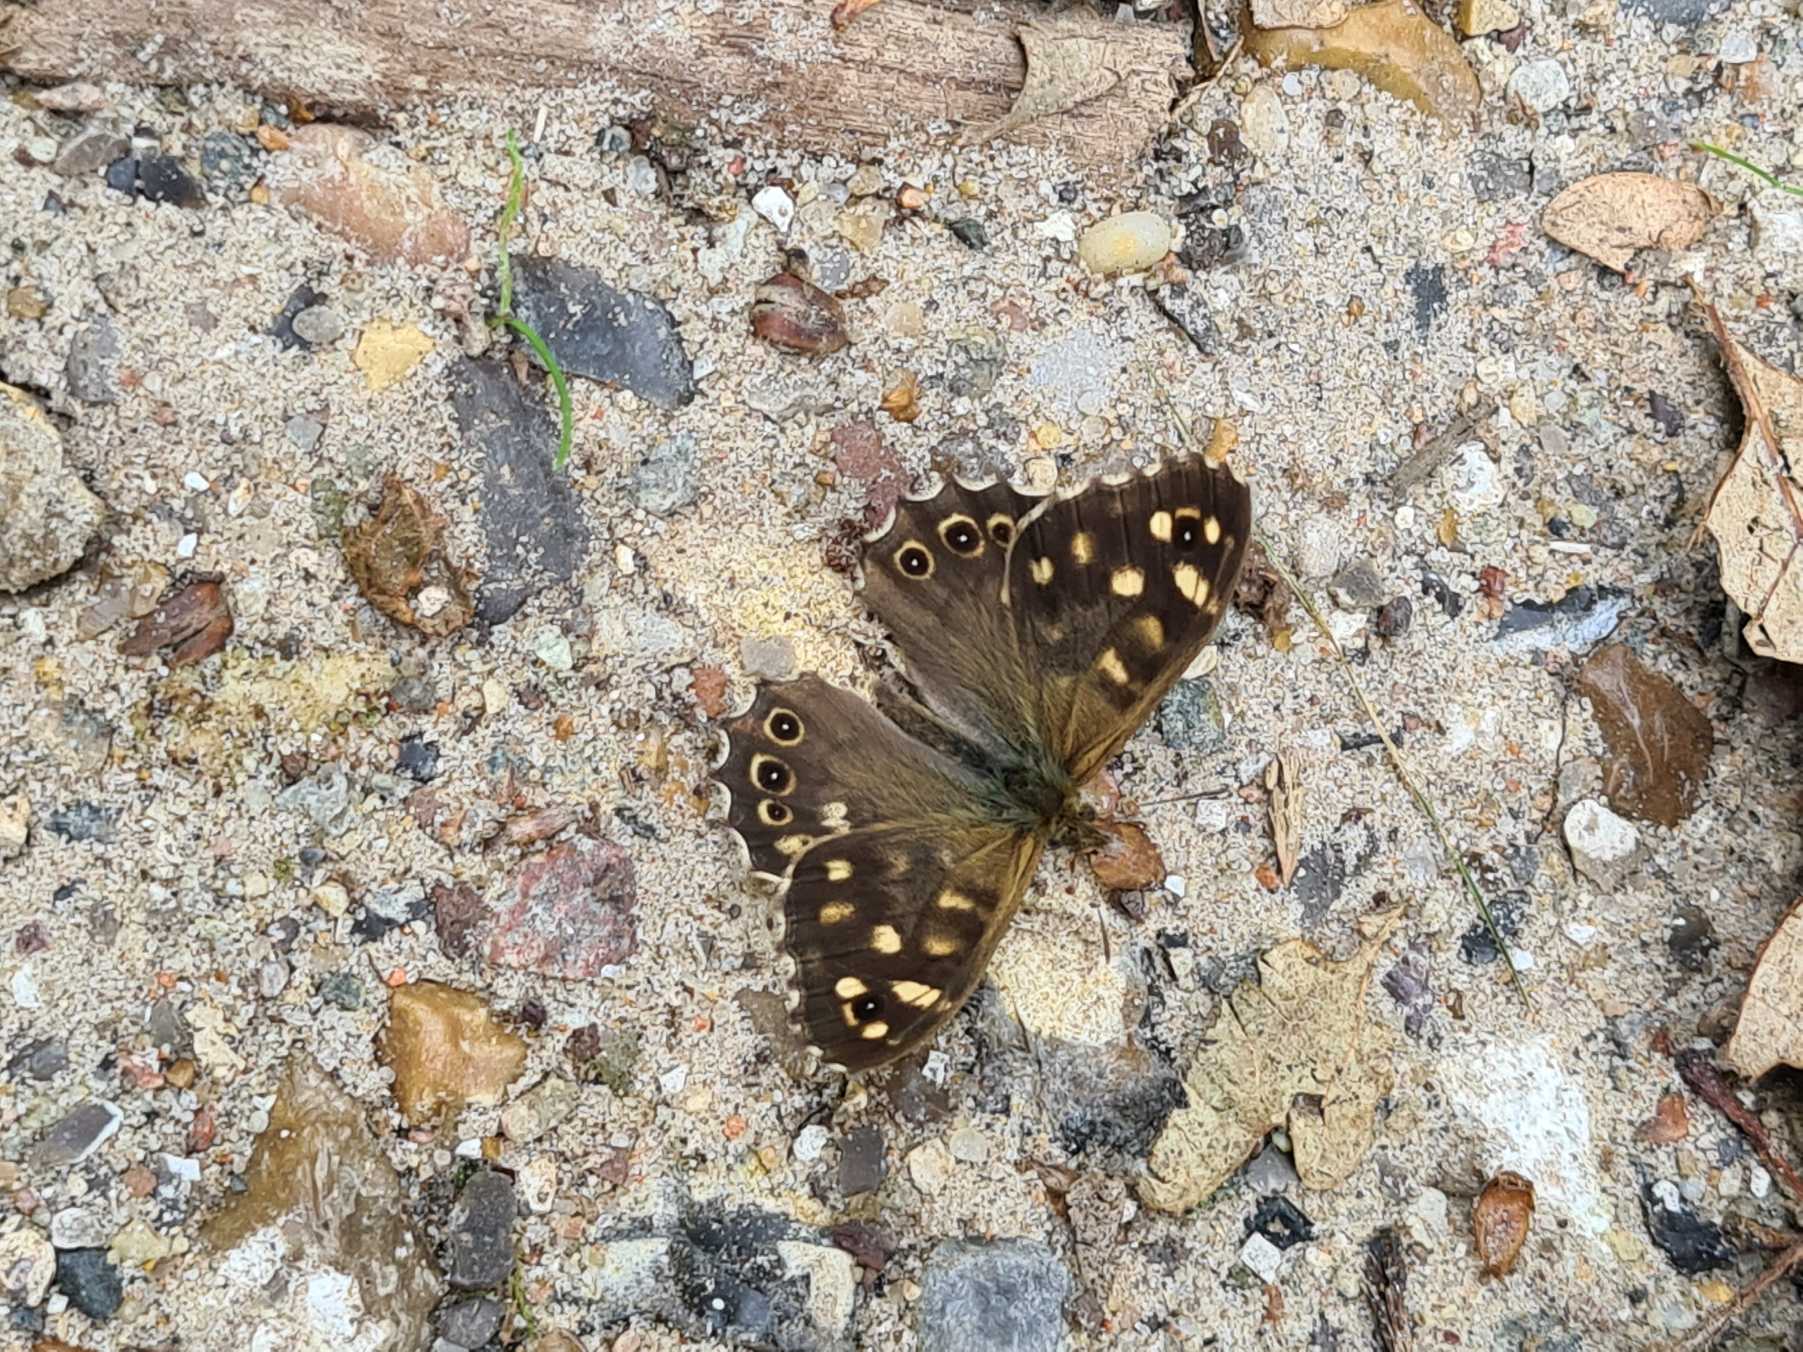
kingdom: Animalia
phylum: Arthropoda
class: Insecta
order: Lepidoptera
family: Nymphalidae
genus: Pararge
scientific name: Pararge aegeria
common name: Skovrandøje
